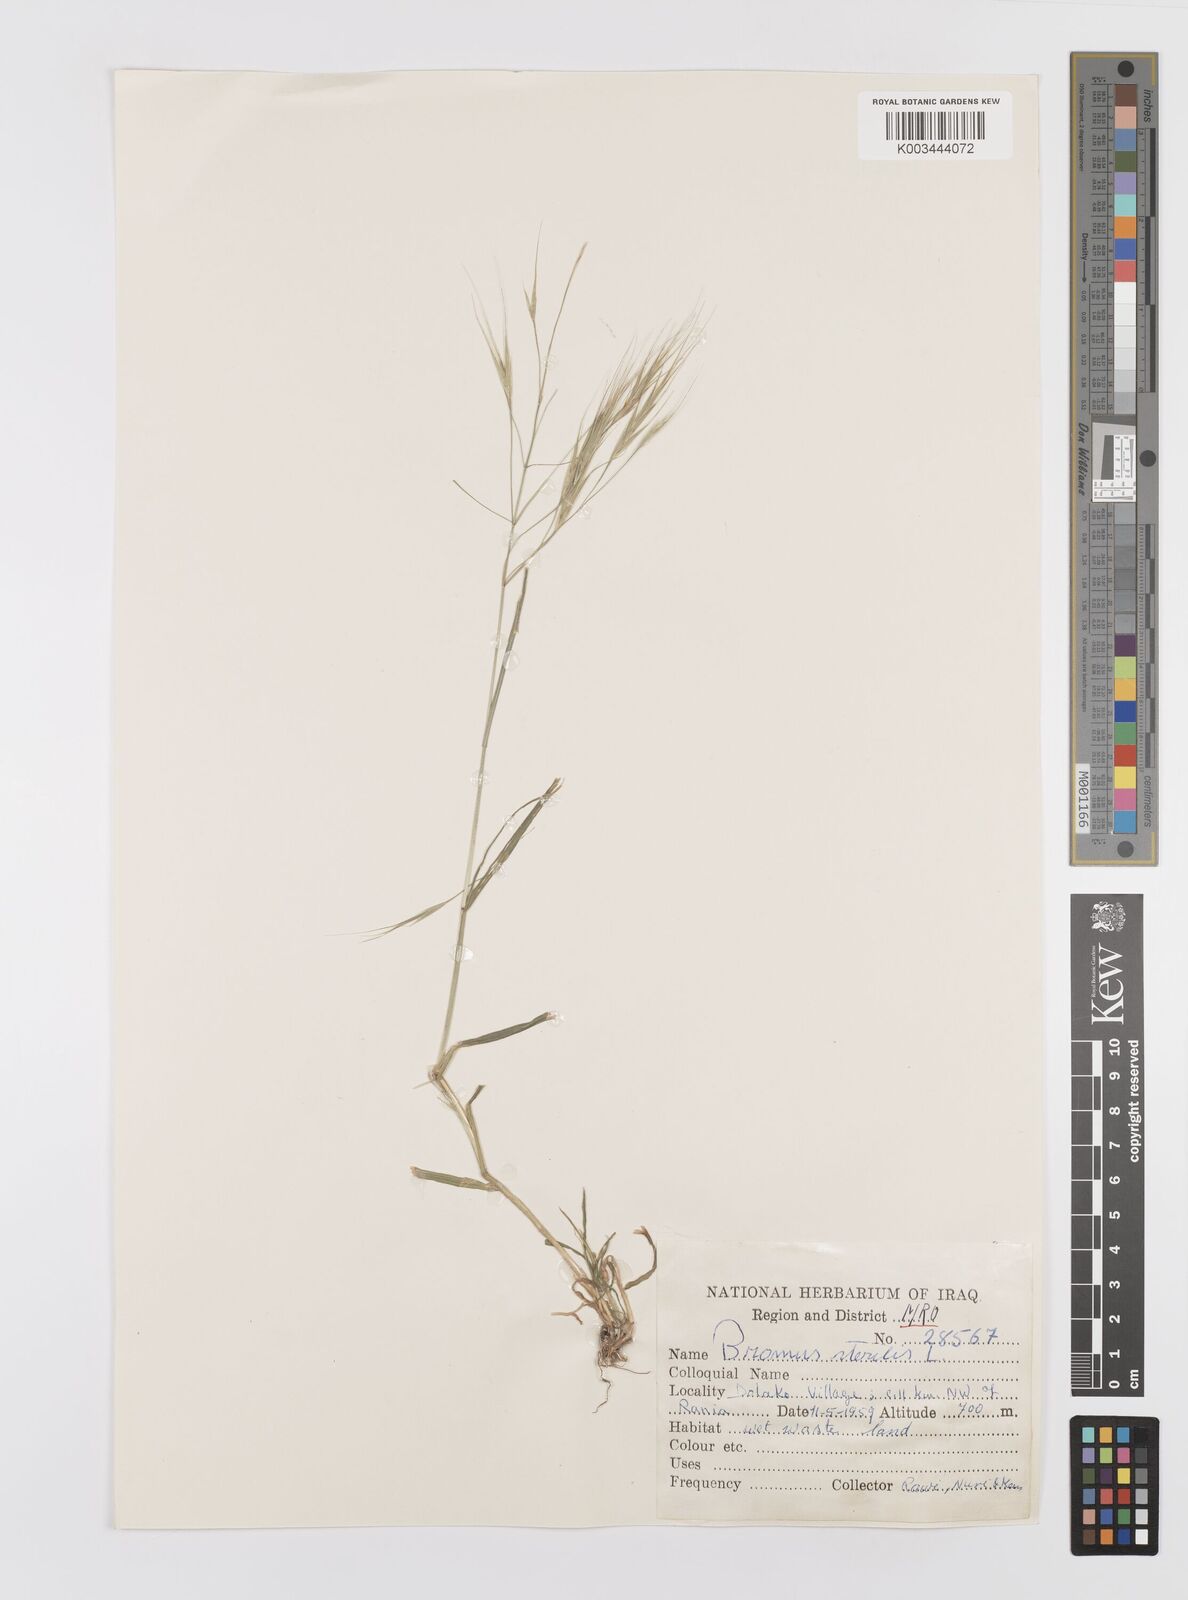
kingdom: Plantae
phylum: Tracheophyta
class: Liliopsida
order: Poales
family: Poaceae
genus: Bromus
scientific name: Bromus sterilis
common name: Poverty brome
